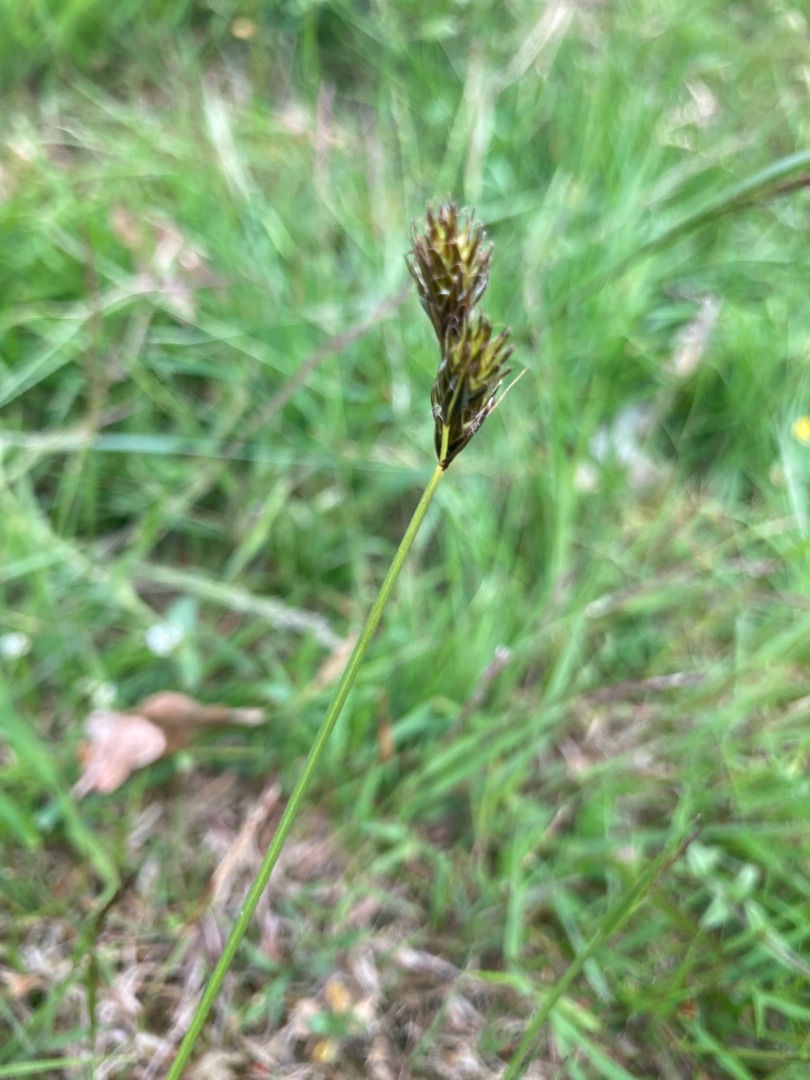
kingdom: Plantae
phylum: Tracheophyta
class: Liliopsida
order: Poales
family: Cyperaceae
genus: Carex
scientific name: Carex leporina
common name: Hare-star
